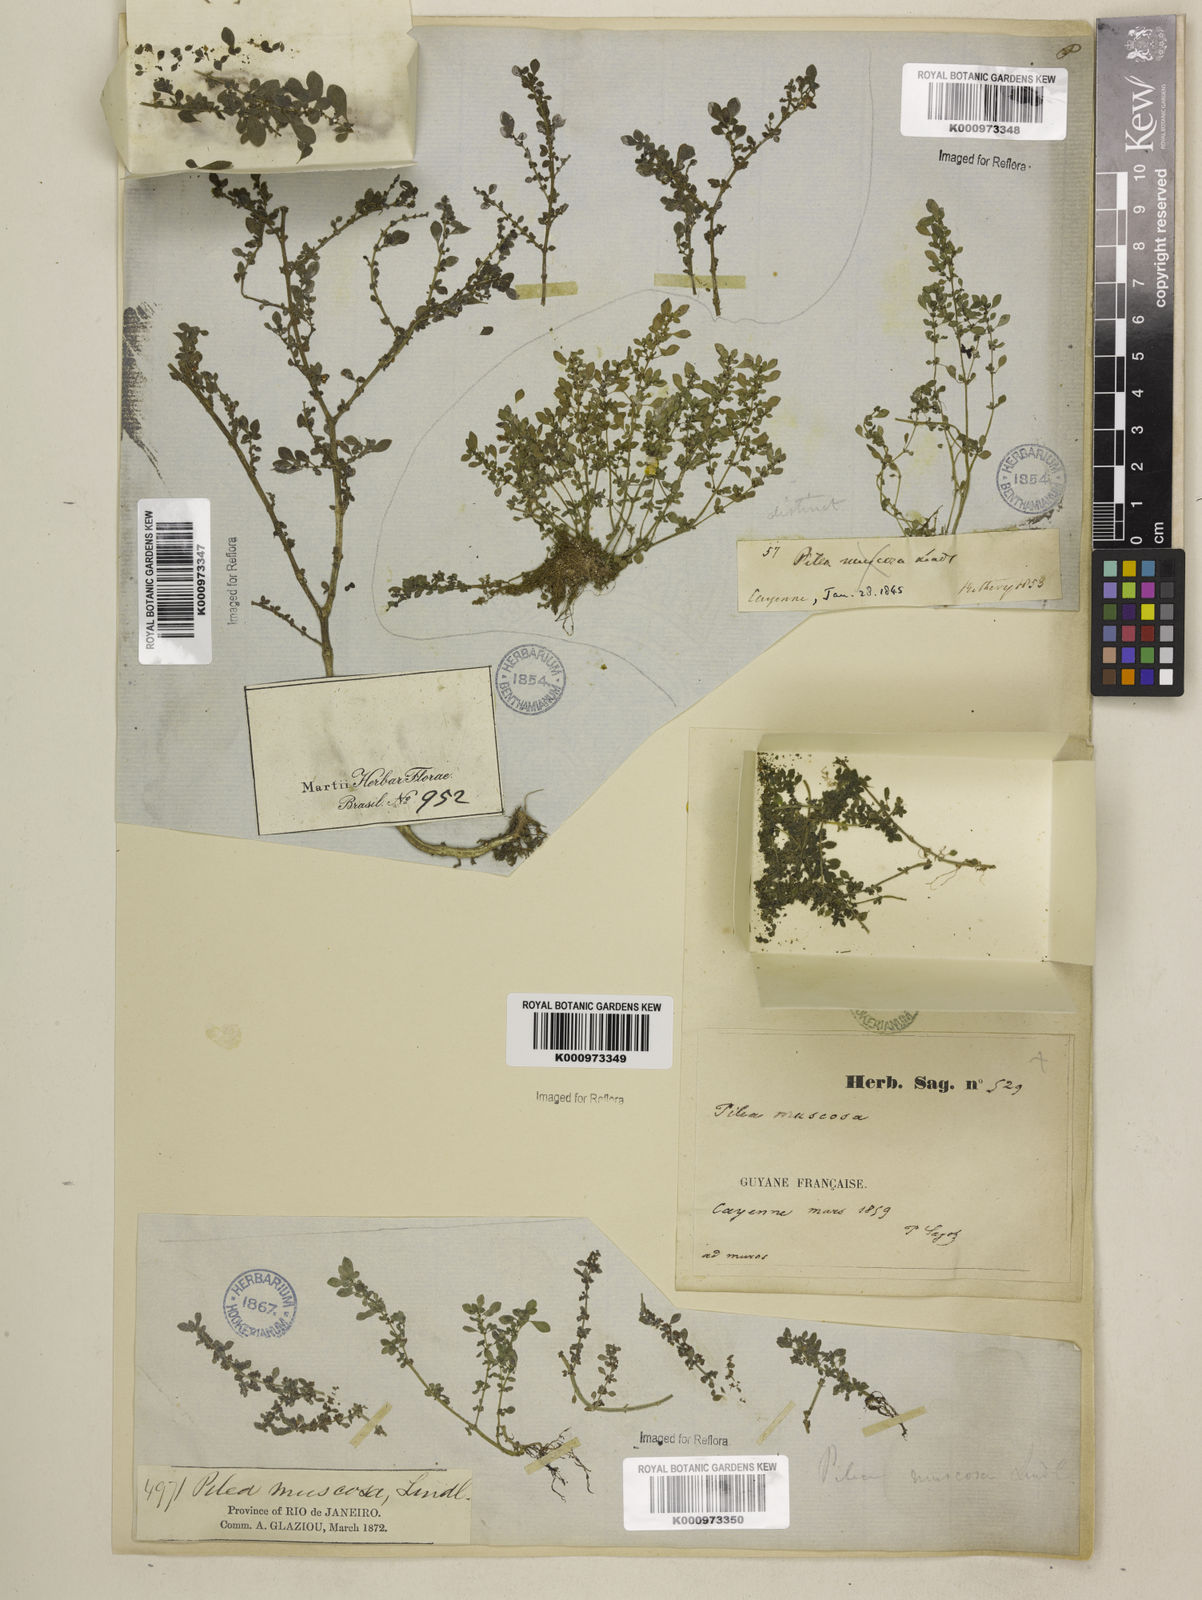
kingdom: Plantae
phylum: Tracheophyta
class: Magnoliopsida
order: Rosales
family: Urticaceae
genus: Pilea
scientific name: Pilea microphylla
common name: Artillery-plant
